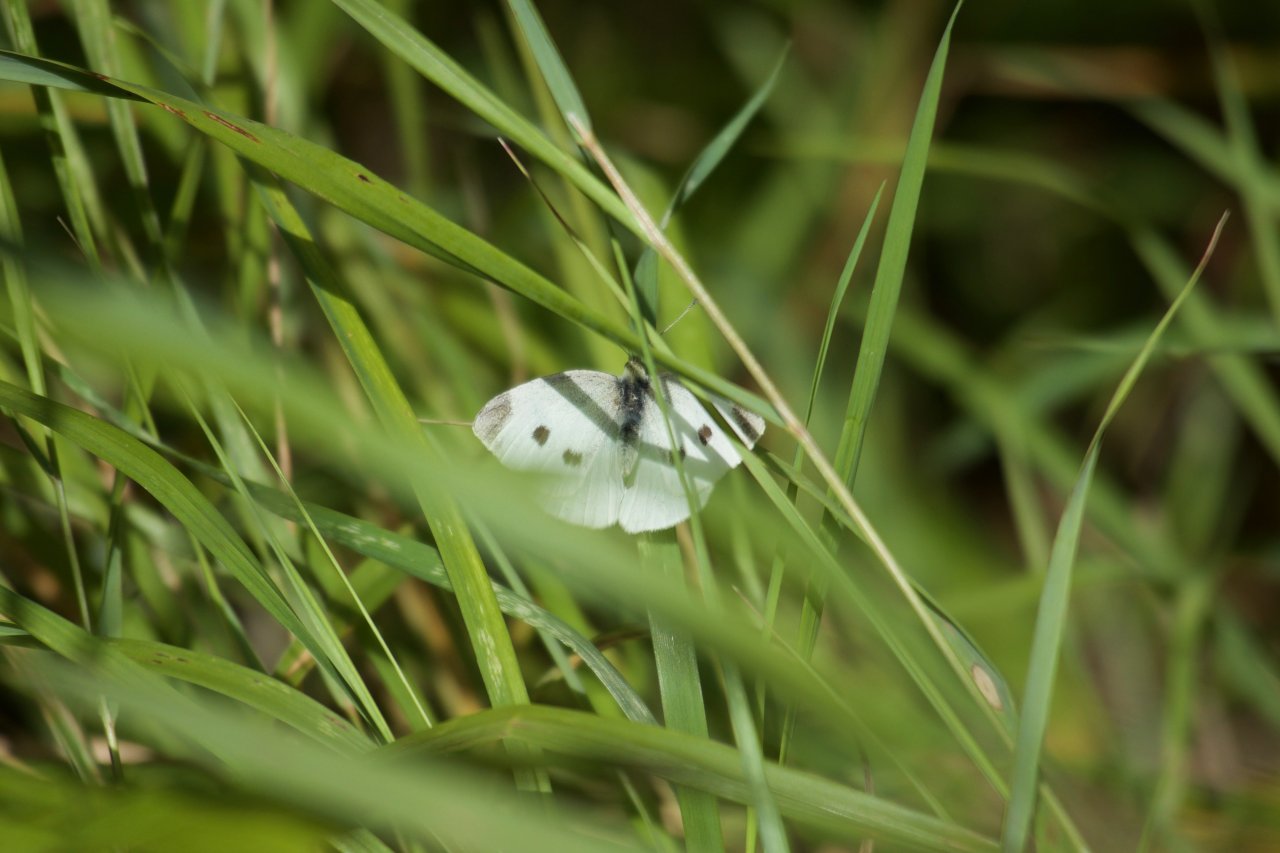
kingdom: Animalia
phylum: Arthropoda
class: Insecta
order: Lepidoptera
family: Pieridae
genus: Pieris
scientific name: Pieris rapae
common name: Cabbage White
